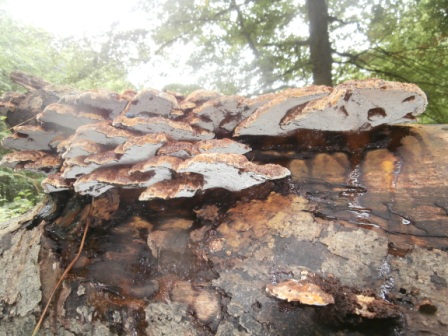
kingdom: Fungi
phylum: Basidiomycota
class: Agaricomycetes
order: Hymenochaetales
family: Hymenochaetaceae
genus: Mensularia
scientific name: Mensularia nodulosa
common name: bøge-spejlporesvamp
